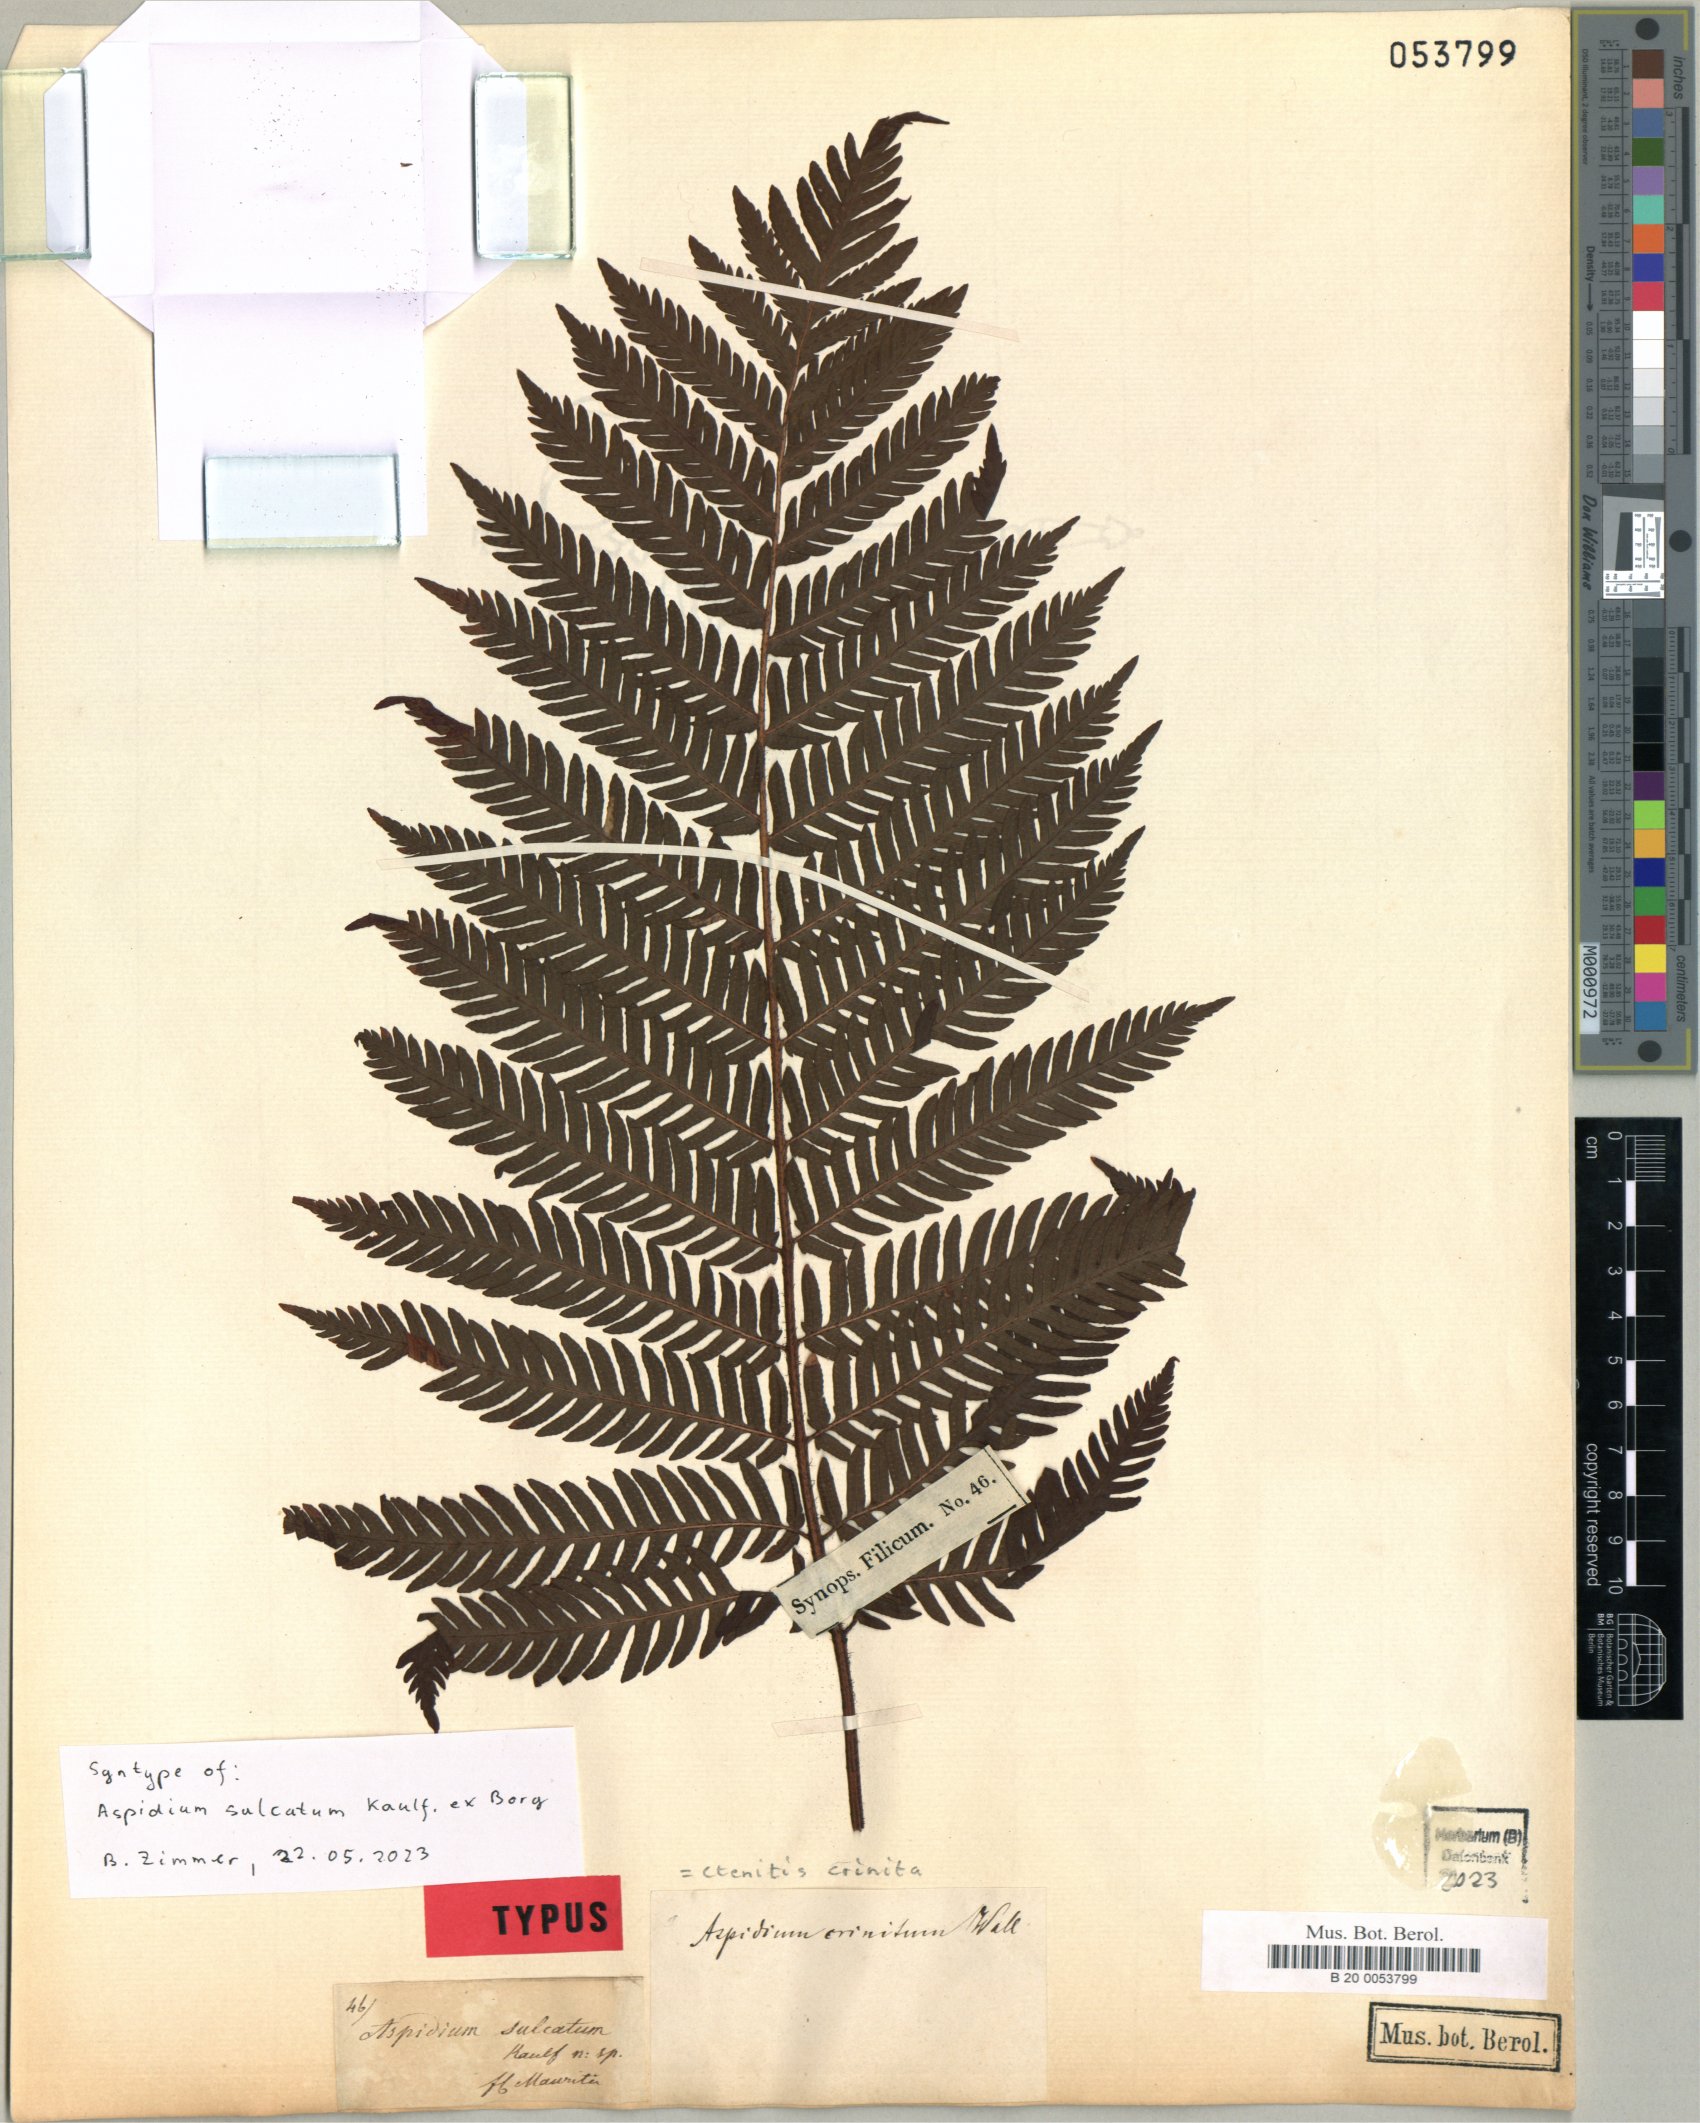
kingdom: Plantae
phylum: Tracheophyta
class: Polypodiopsida
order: Polypodiales
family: Dryopteridaceae
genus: Ctenitis
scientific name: Ctenitis crinita
